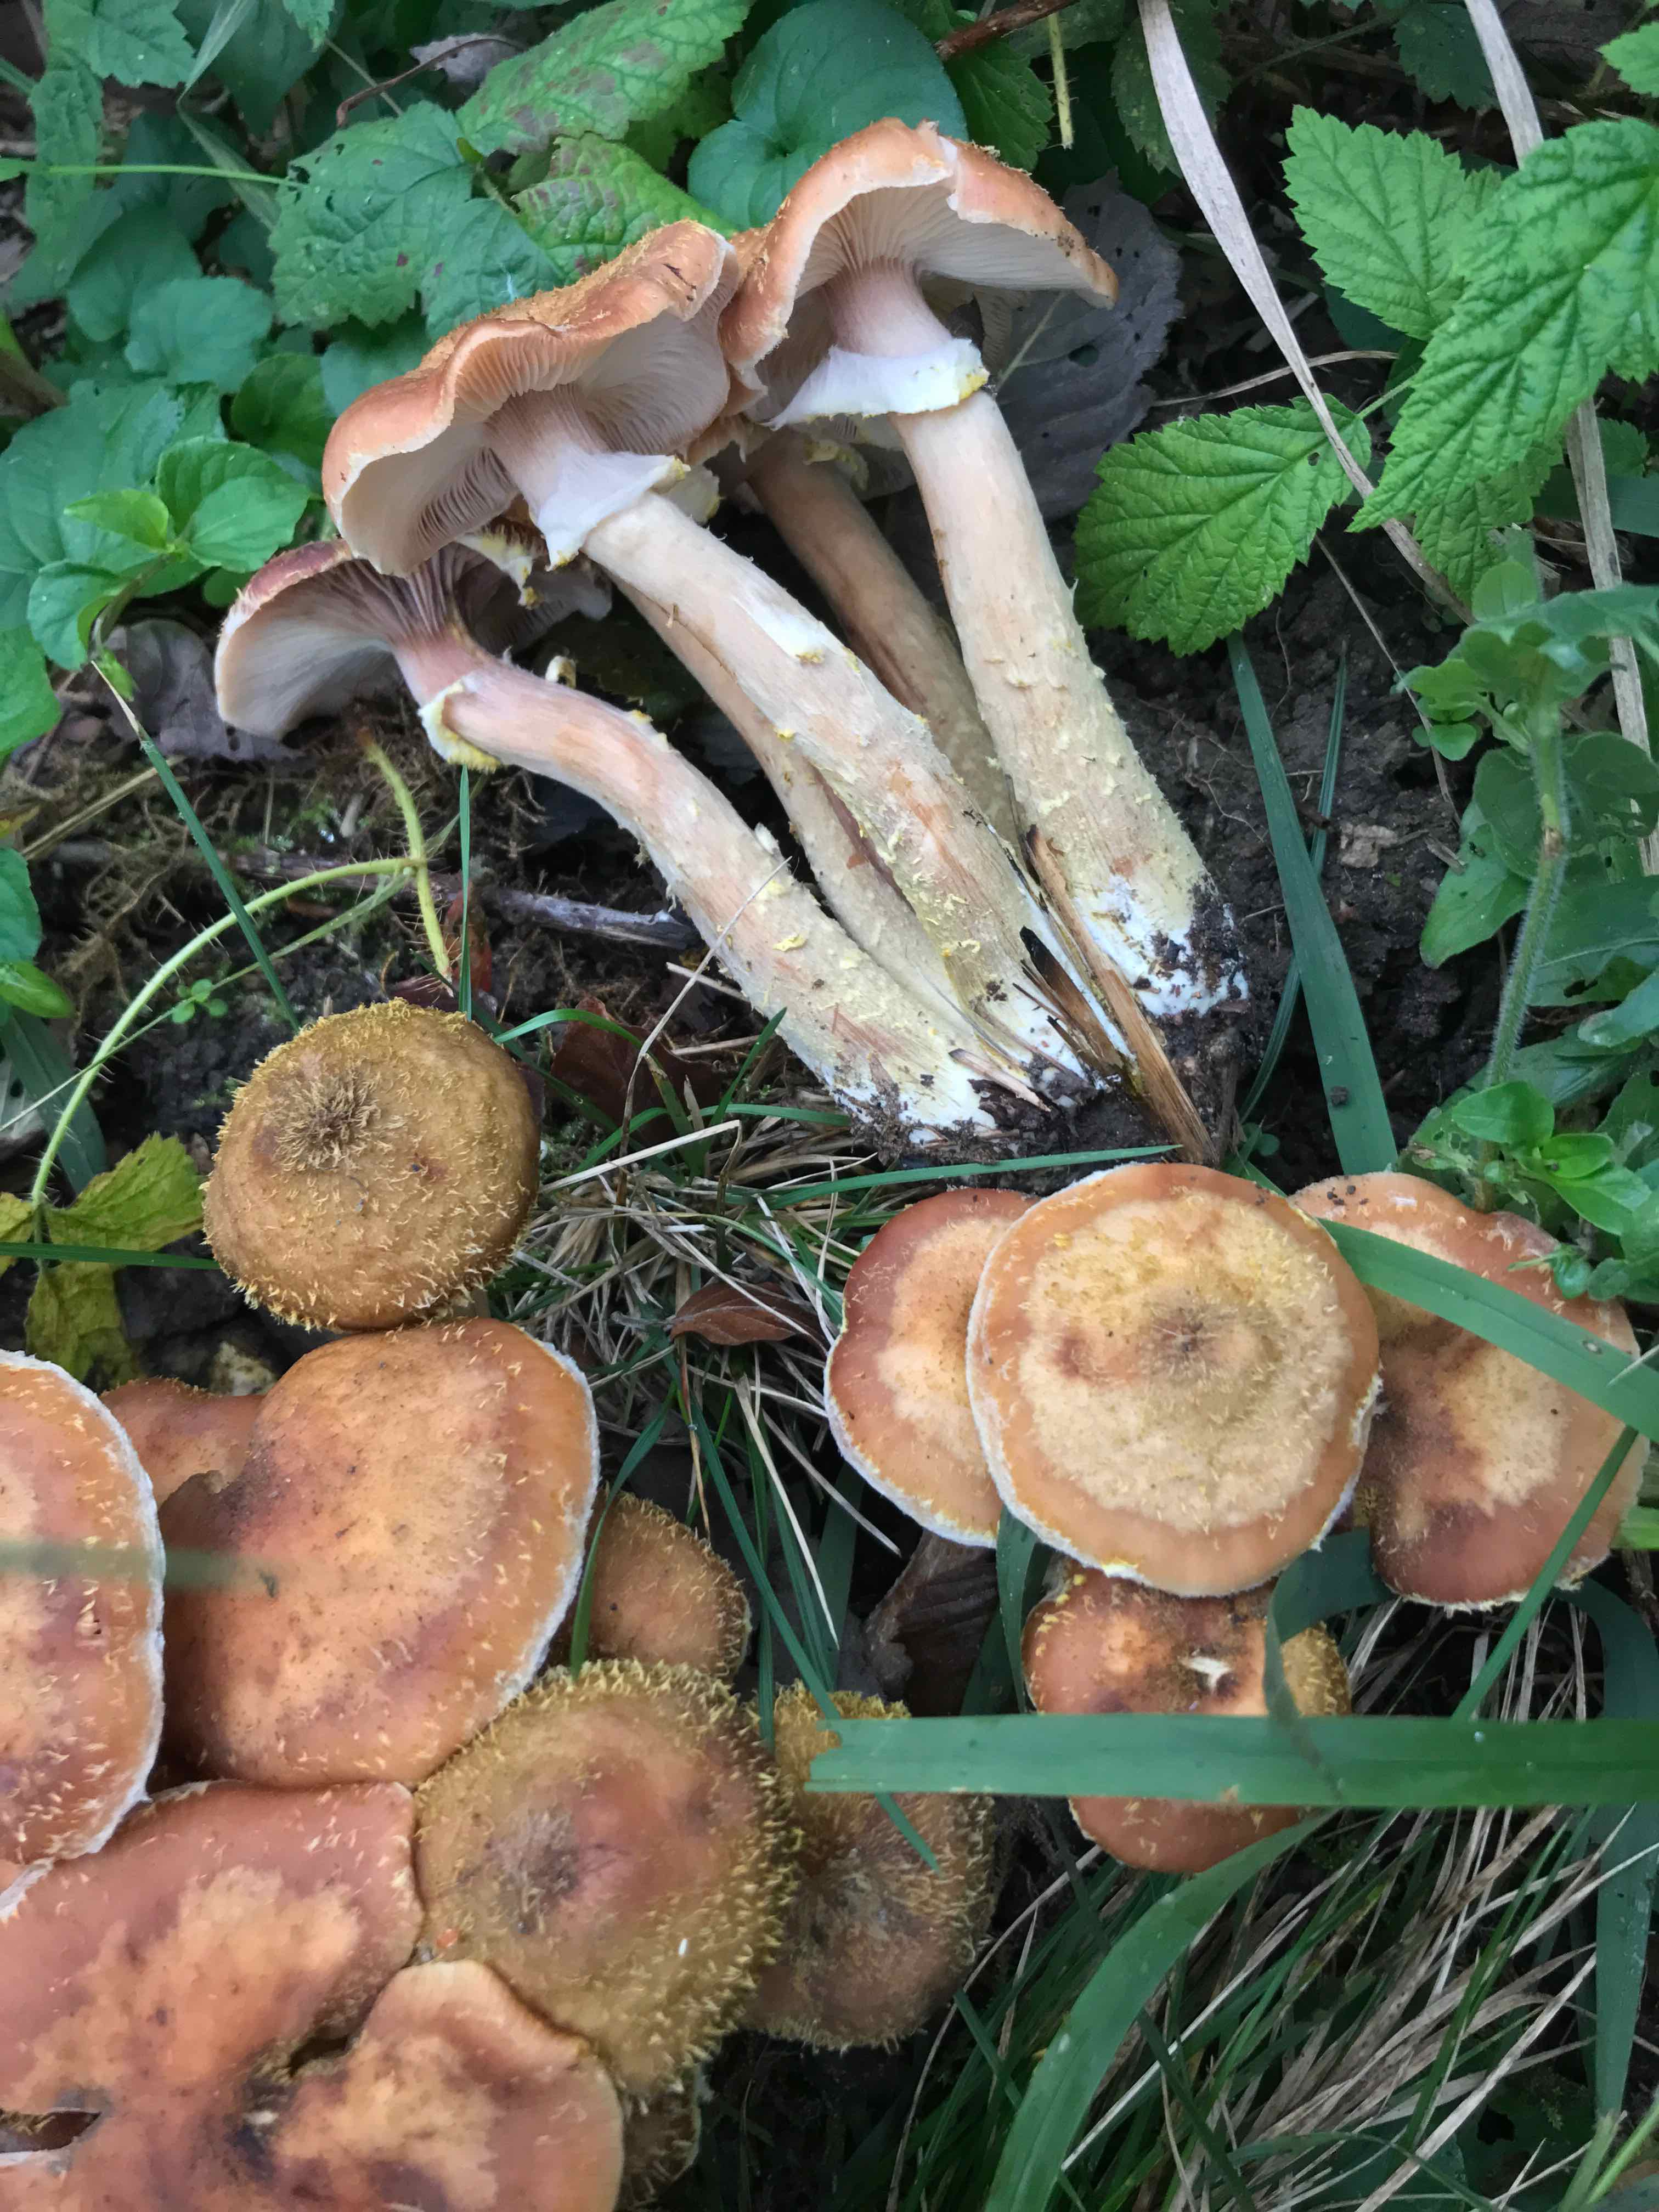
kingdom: Fungi
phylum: Basidiomycota
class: Agaricomycetes
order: Agaricales
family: Physalacriaceae
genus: Armillaria
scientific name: Armillaria lutea
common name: køllestokket honningsvamp
